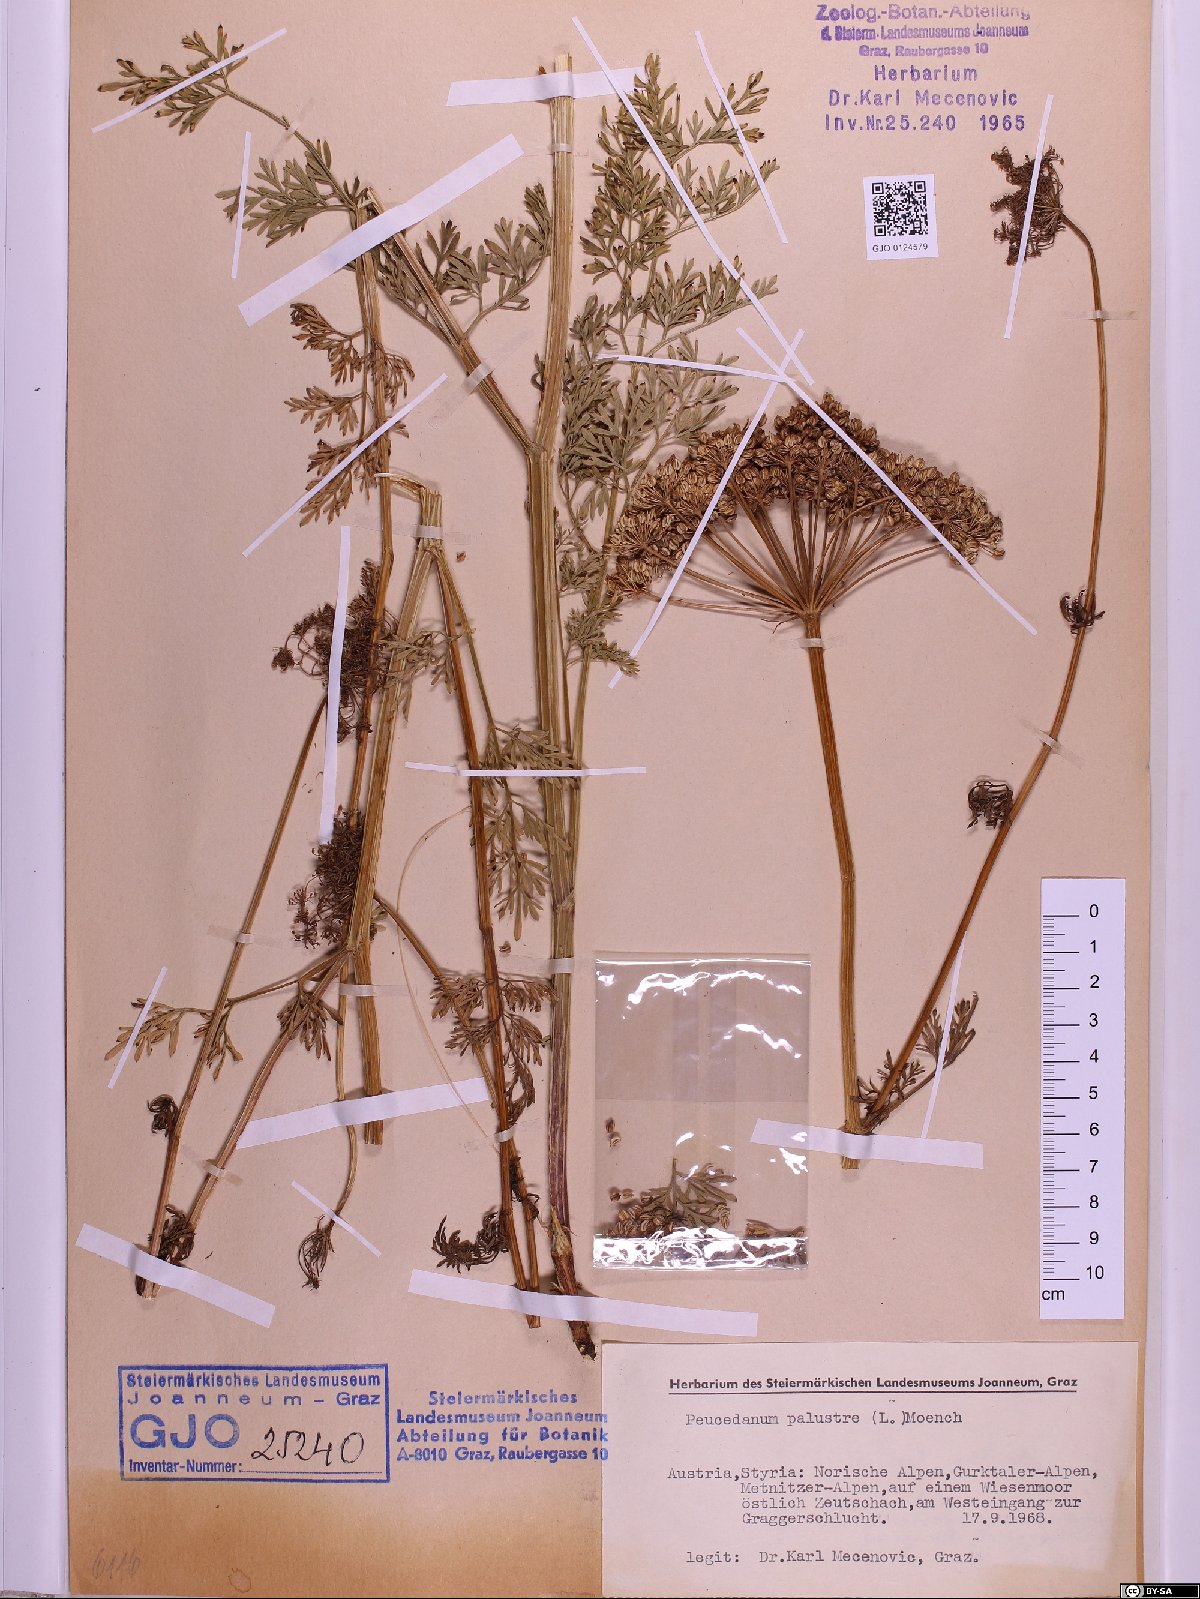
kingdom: Plantae
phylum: Tracheophyta
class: Magnoliopsida
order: Apiales
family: Apiaceae
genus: Thysselinum
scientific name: Thysselinum palustre
